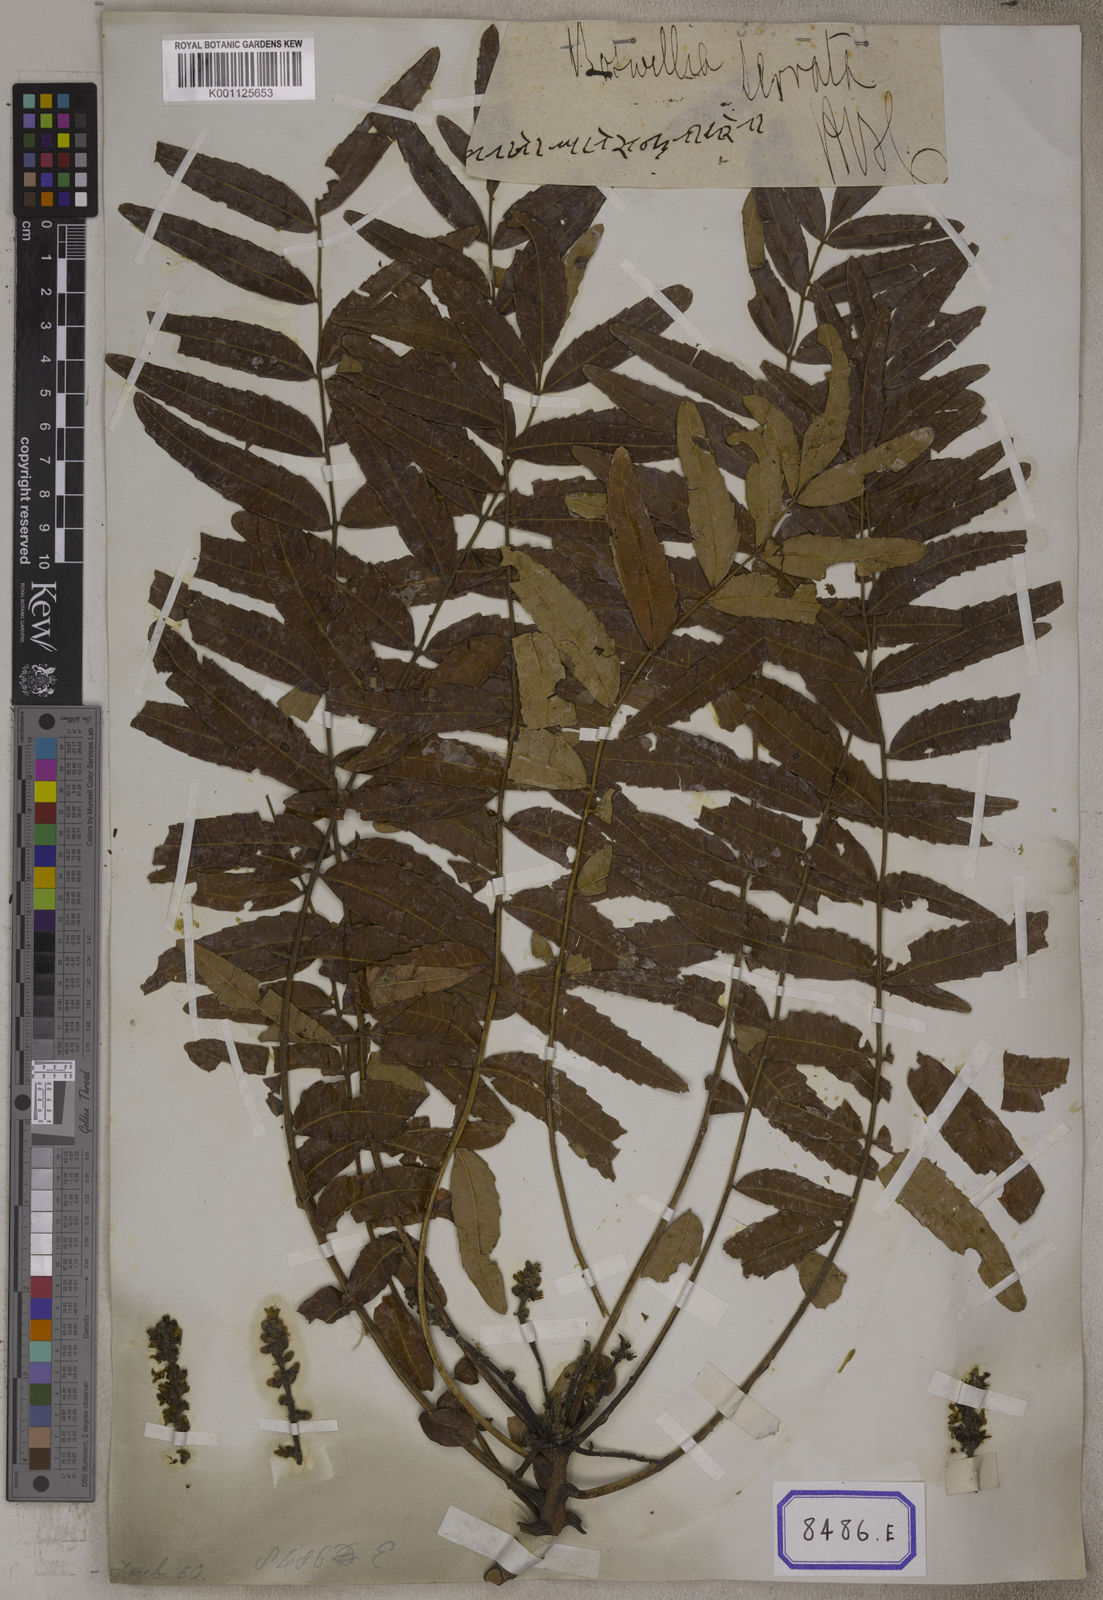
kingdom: Plantae
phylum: Tracheophyta
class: Magnoliopsida
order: Sapindales
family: Burseraceae
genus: Boswellia
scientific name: Boswellia serrata
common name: Boswellia
